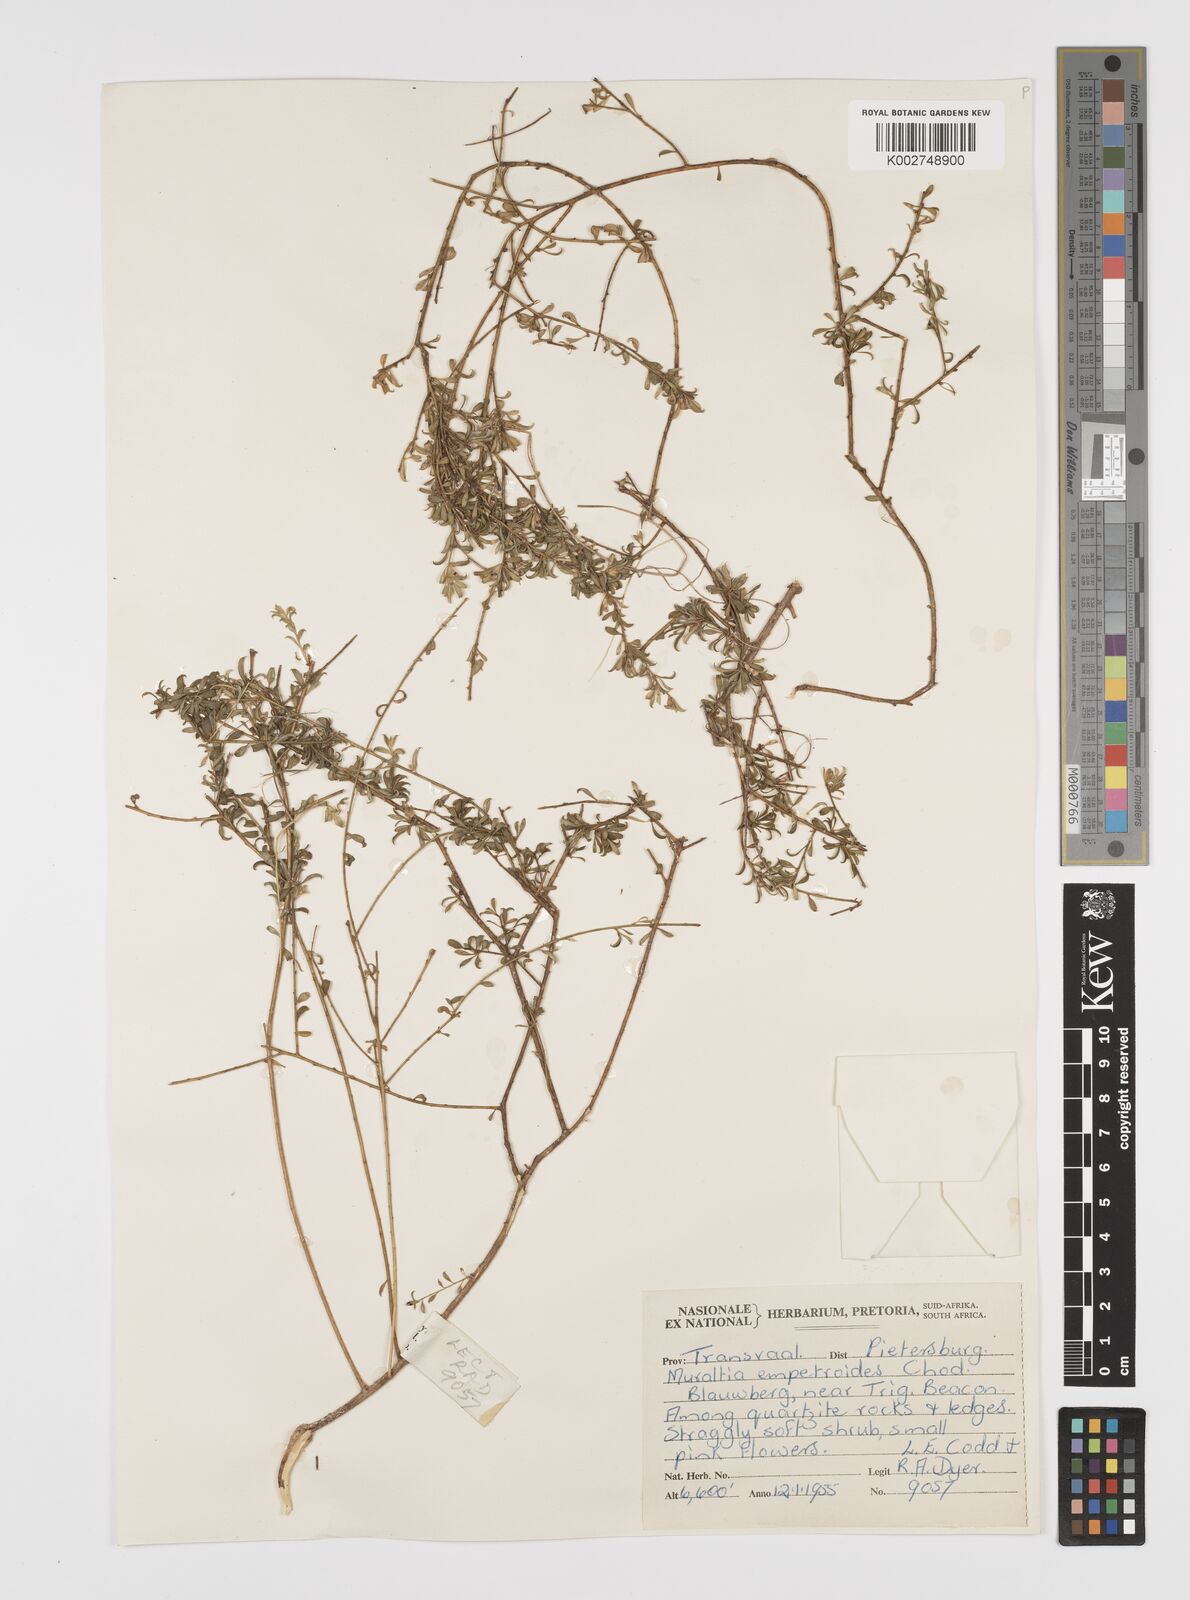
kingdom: Plantae
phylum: Tracheophyta
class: Magnoliopsida
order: Fabales
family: Polygalaceae
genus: Muraltia
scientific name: Muraltia empetroides
